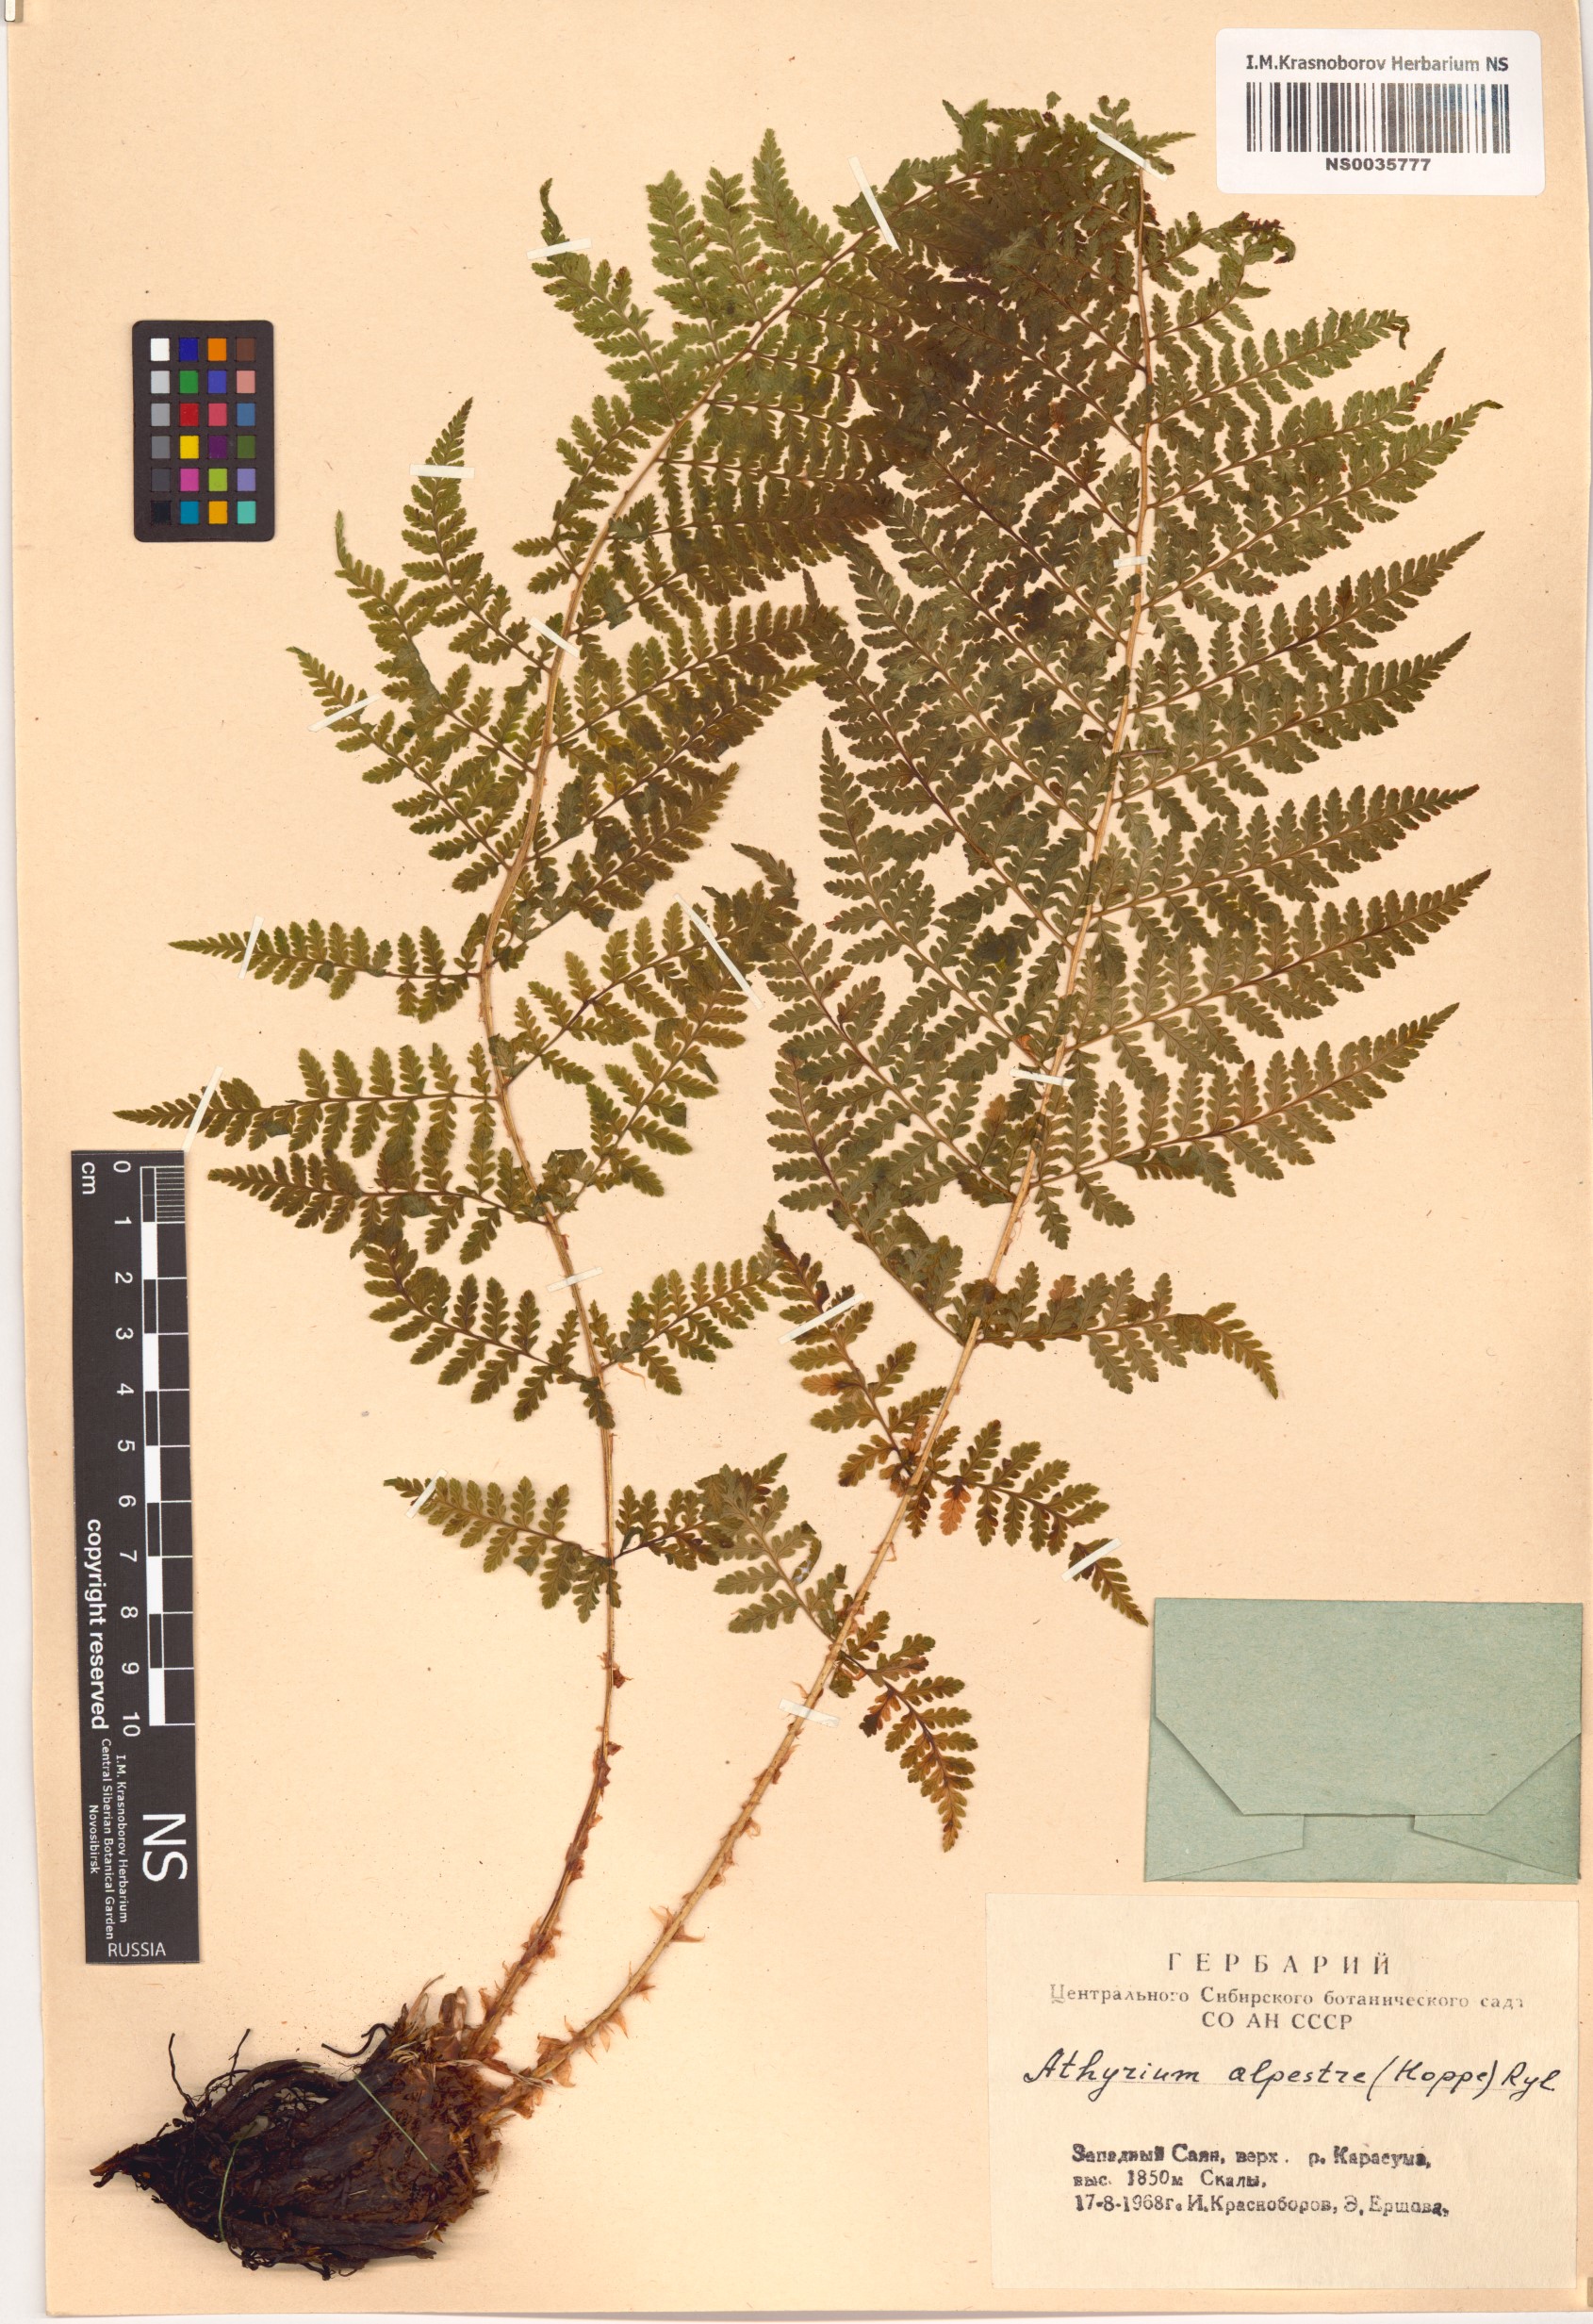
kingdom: Plantae
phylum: Tracheophyta
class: Polypodiopsida
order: Polypodiales
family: Athyriaceae
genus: Pseudathyrium
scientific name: Pseudathyrium alpestre
